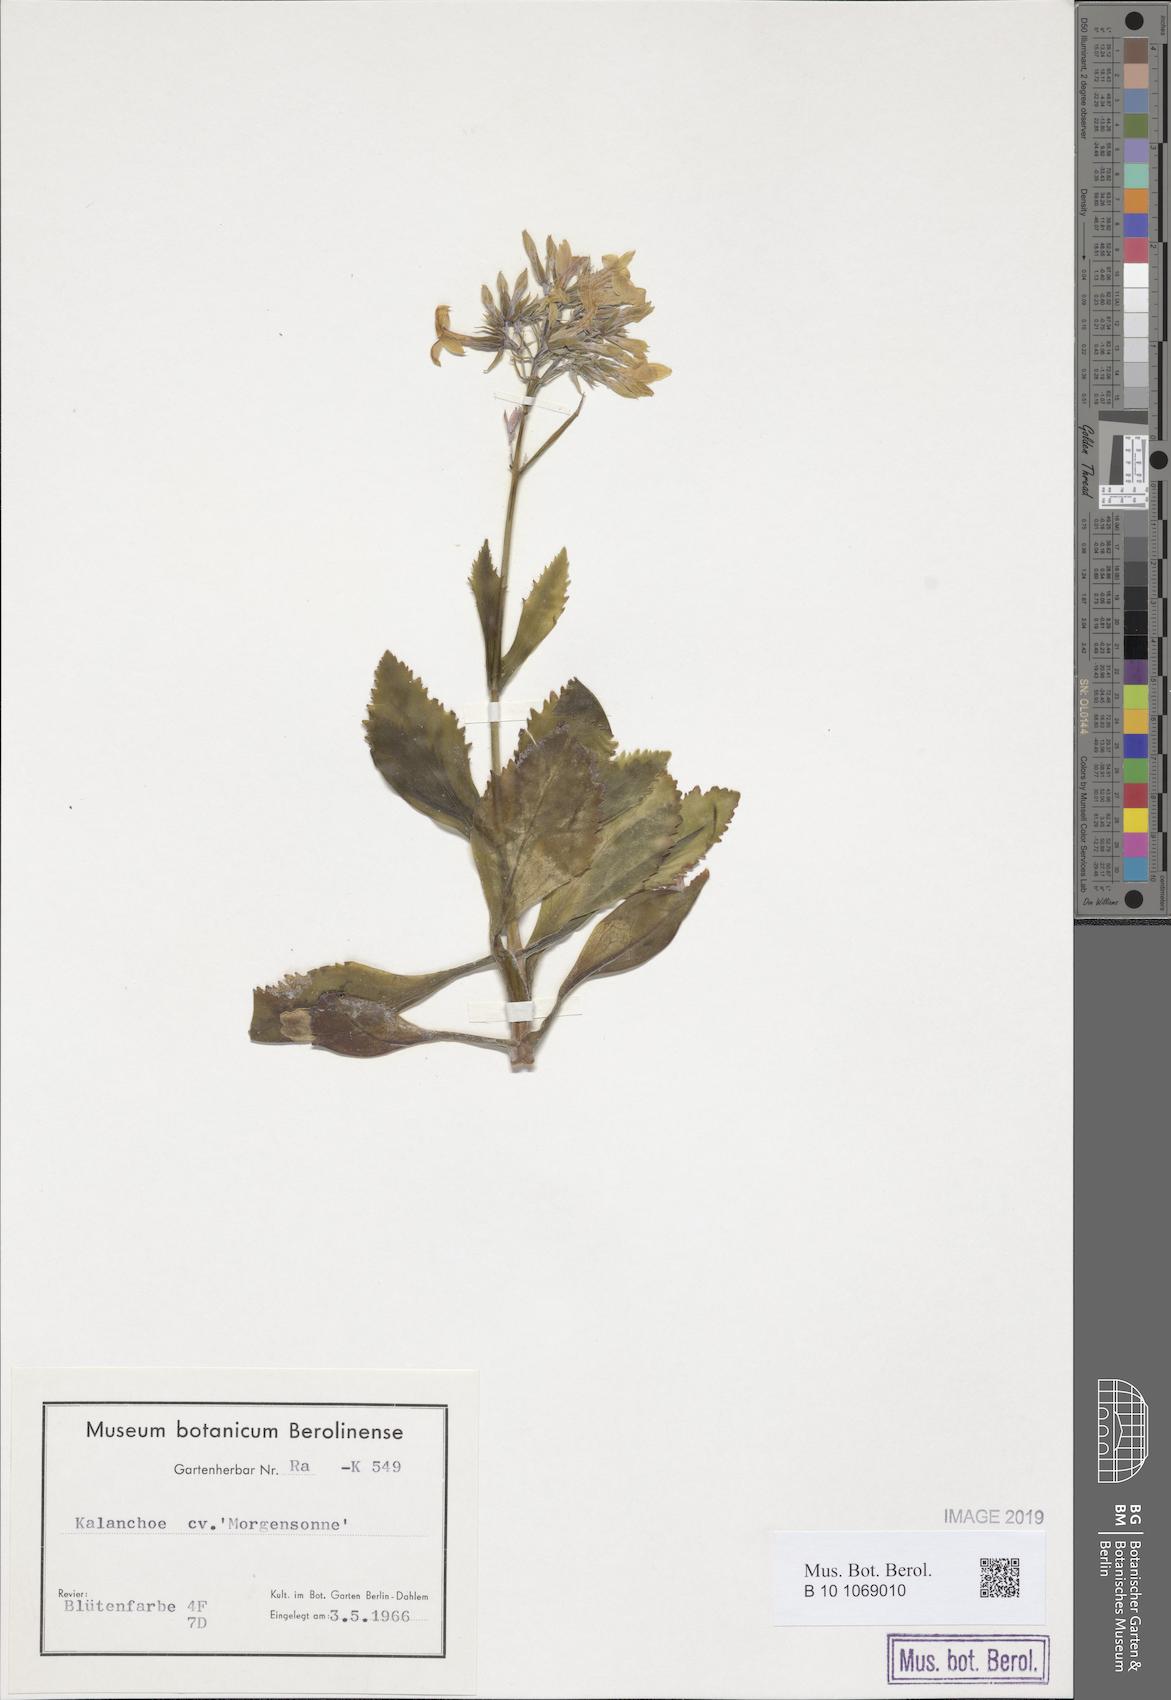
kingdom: Plantae
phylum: Tracheophyta
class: Magnoliopsida
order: Saxifragales
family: Crassulaceae
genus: Kalanchoe
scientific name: Kalanchoe
